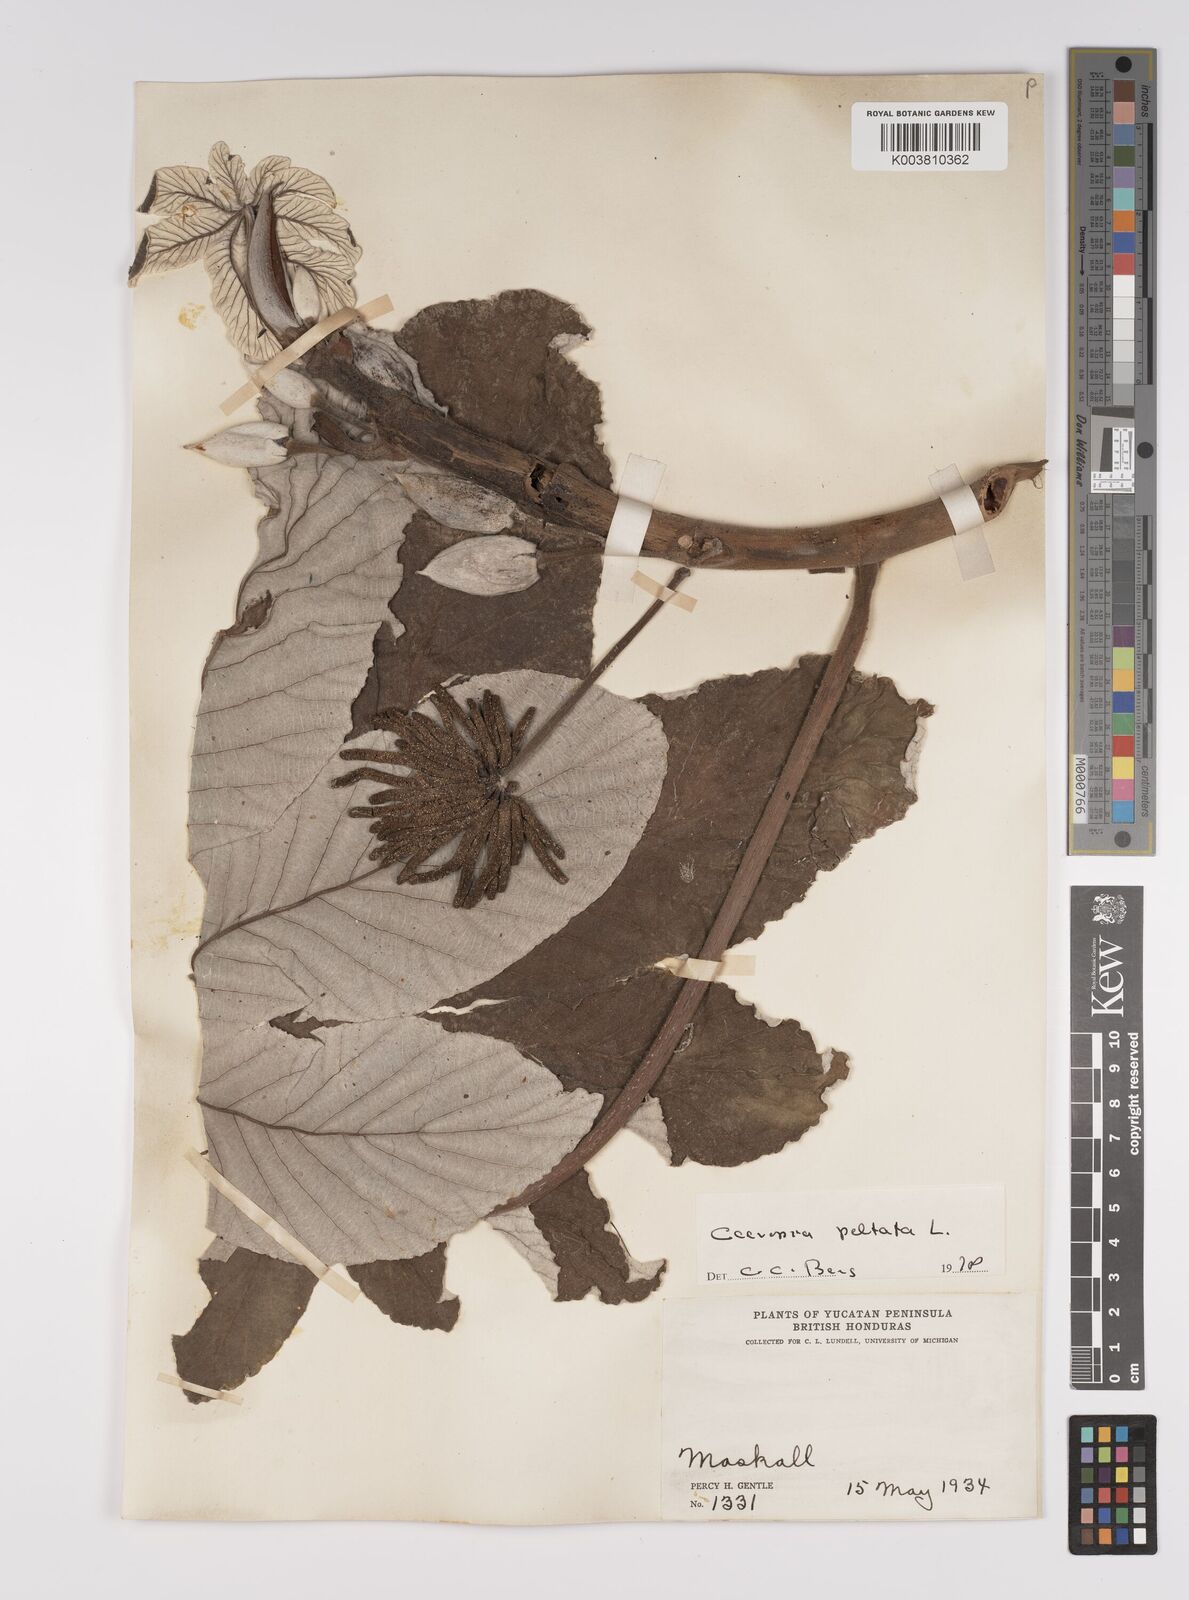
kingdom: Plantae
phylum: Tracheophyta
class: Magnoliopsida
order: Rosales
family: Urticaceae
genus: Cecropia
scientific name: Cecropia peltata
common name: Trumpet-tree
